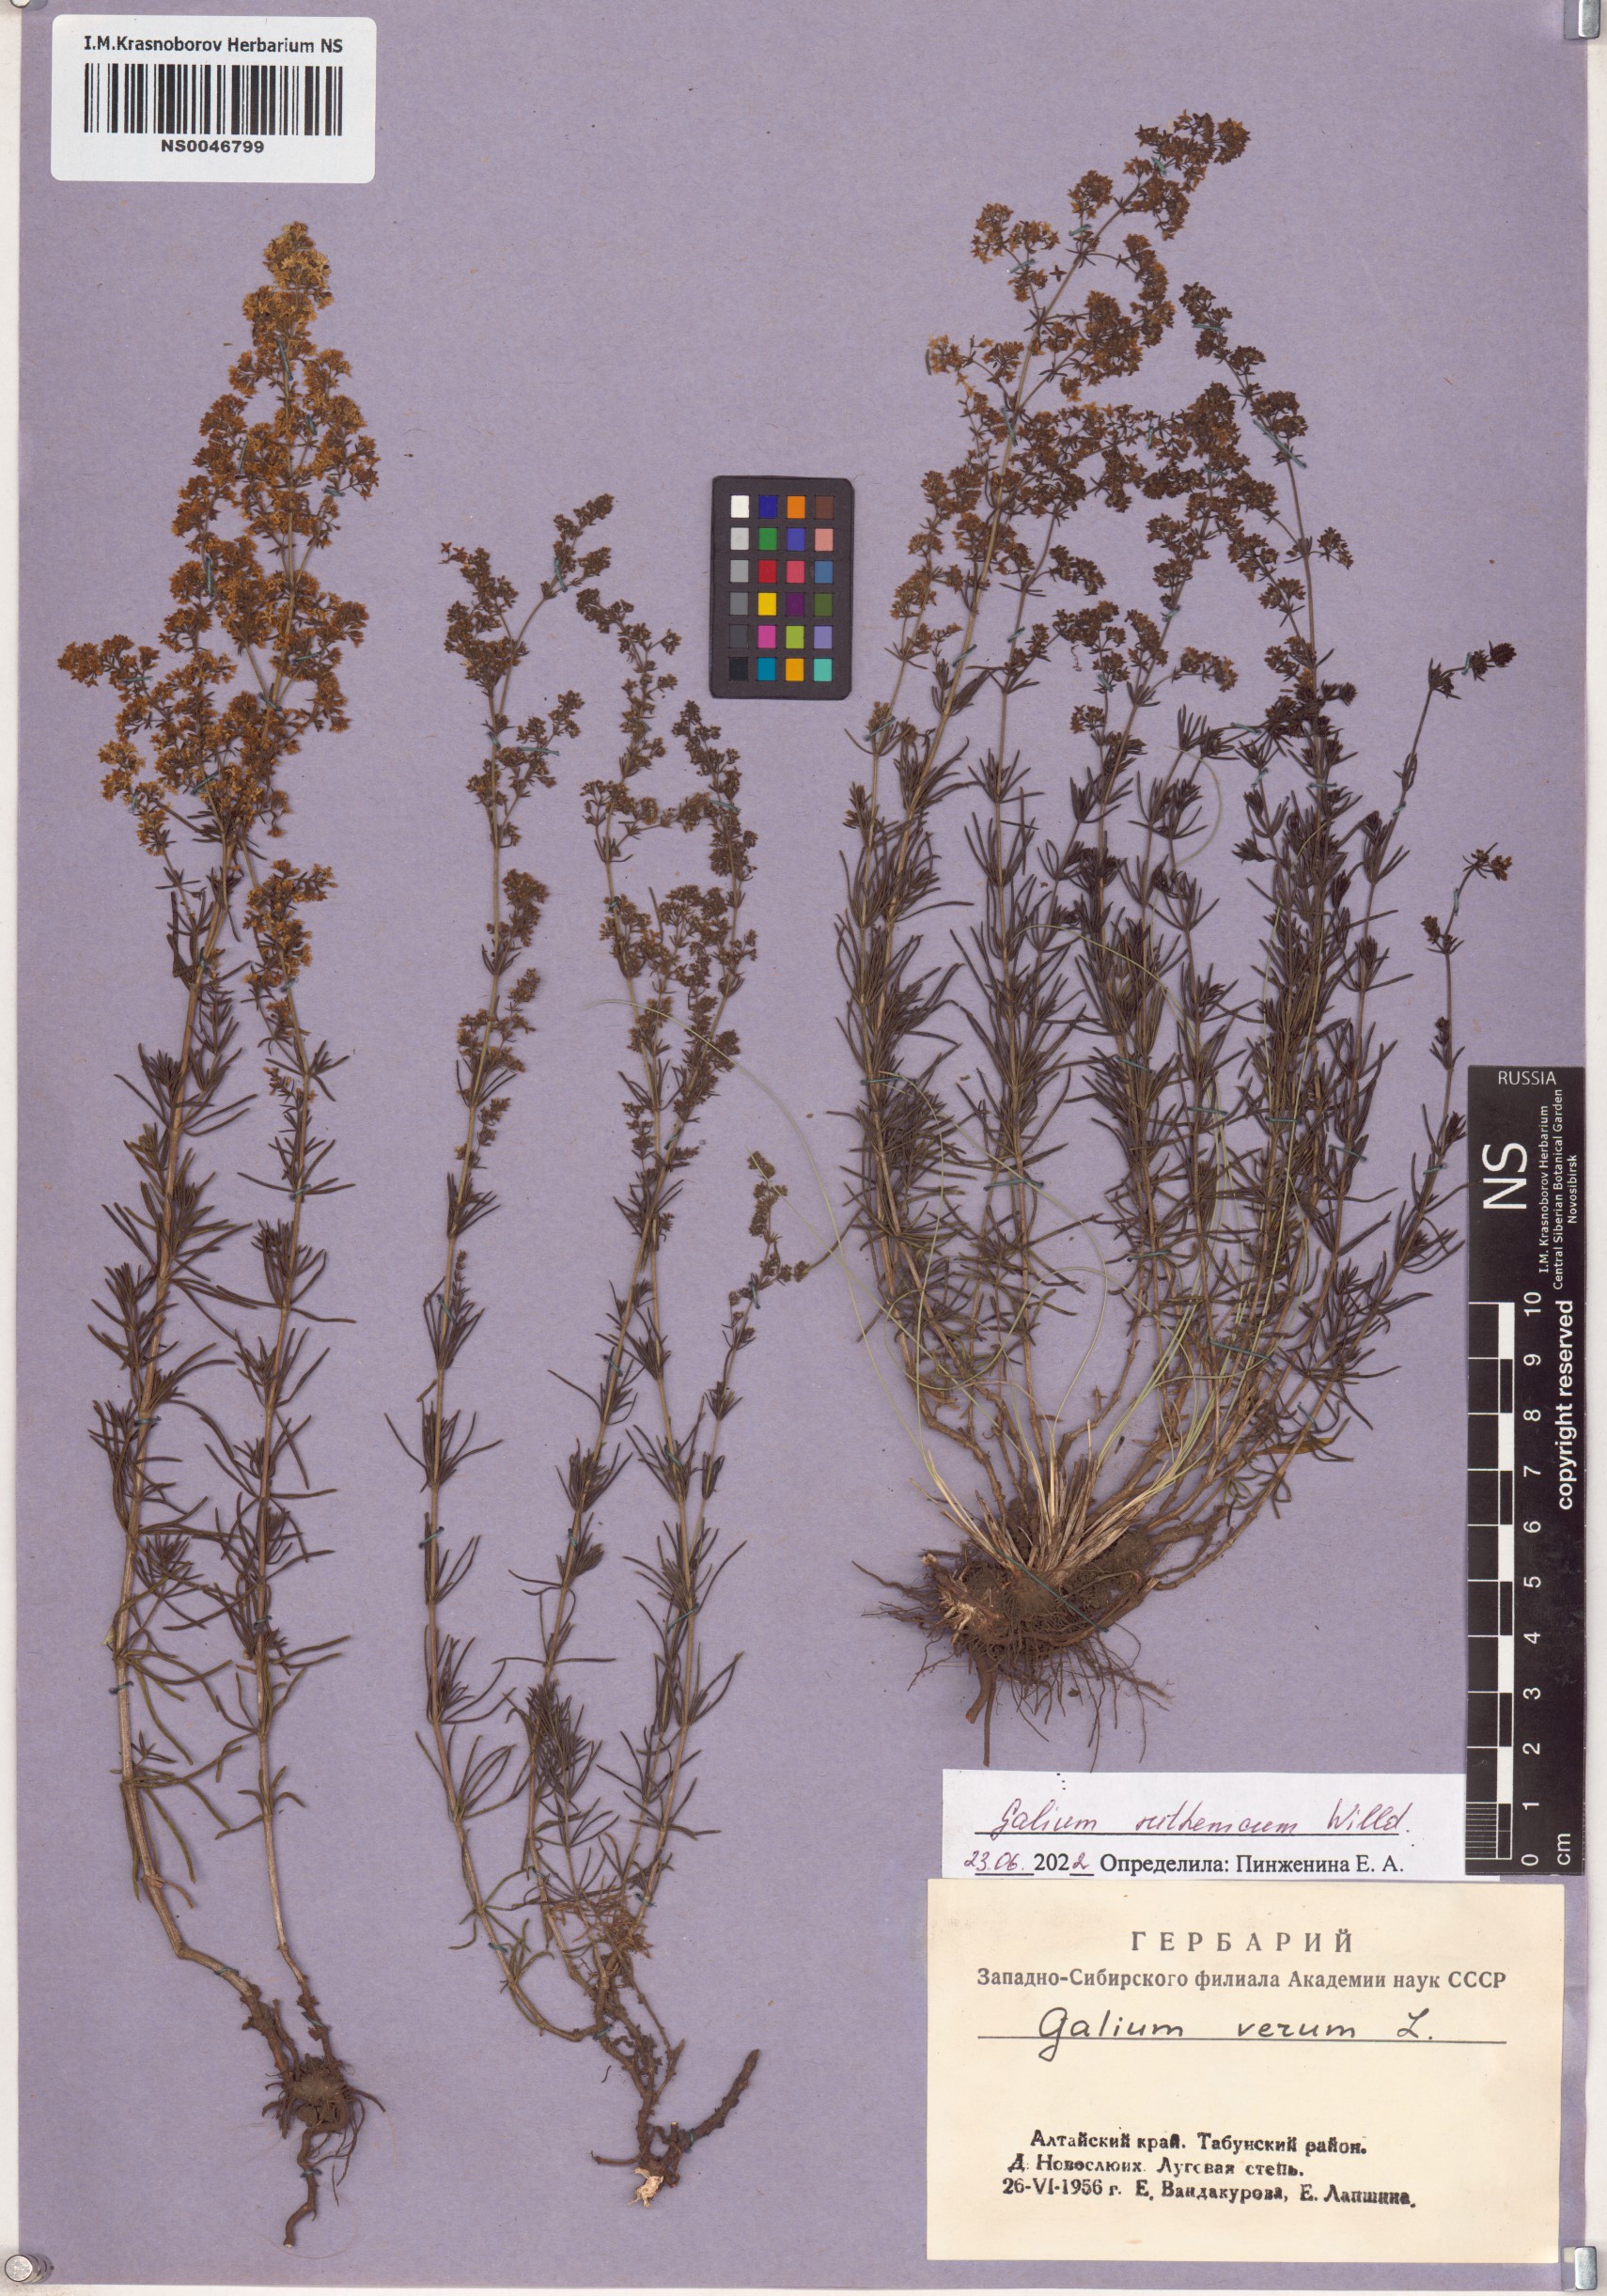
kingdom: Plantae
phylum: Tracheophyta
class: Magnoliopsida
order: Gentianales
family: Rubiaceae
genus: Galium
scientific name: Galium verum
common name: Lady's bedstraw
